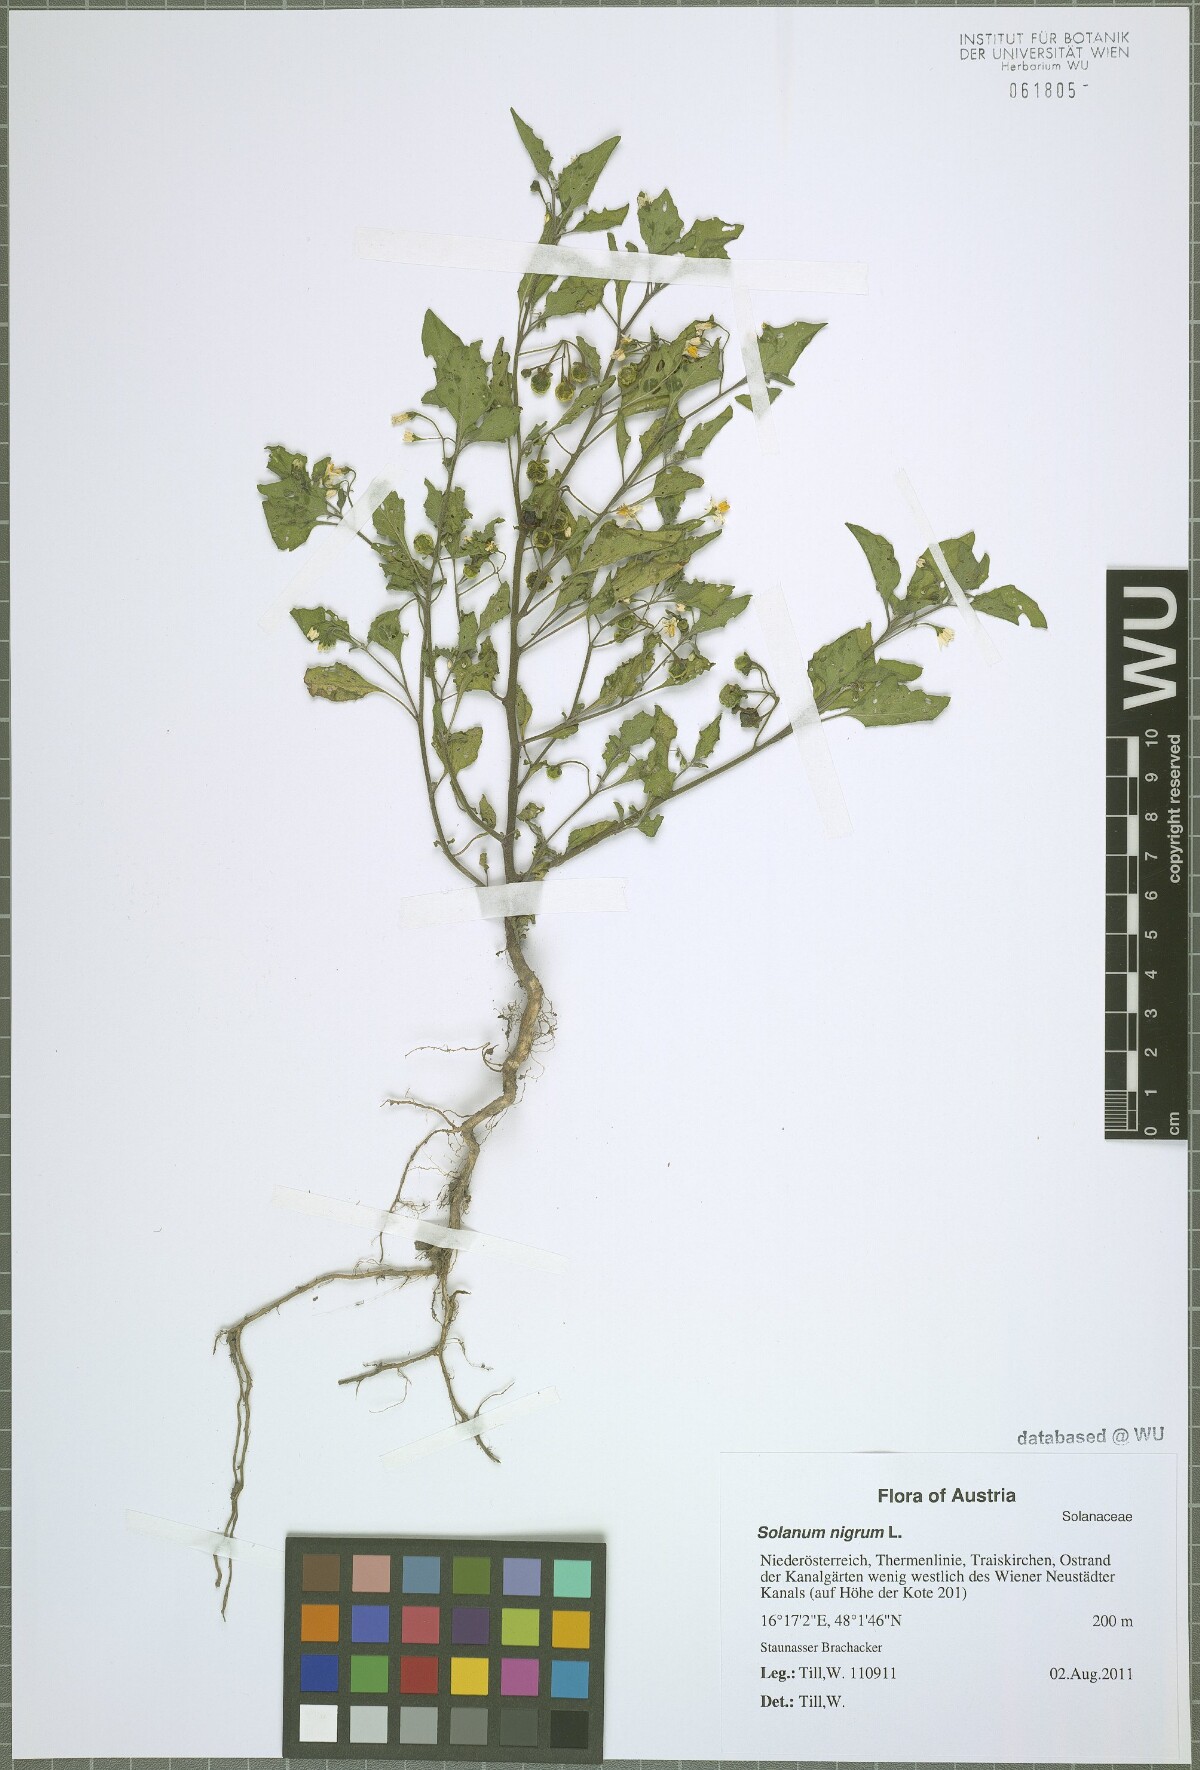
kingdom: Plantae
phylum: Tracheophyta
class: Magnoliopsida
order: Solanales
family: Solanaceae
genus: Solanum
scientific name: Solanum nigrum
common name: Black nightshade
